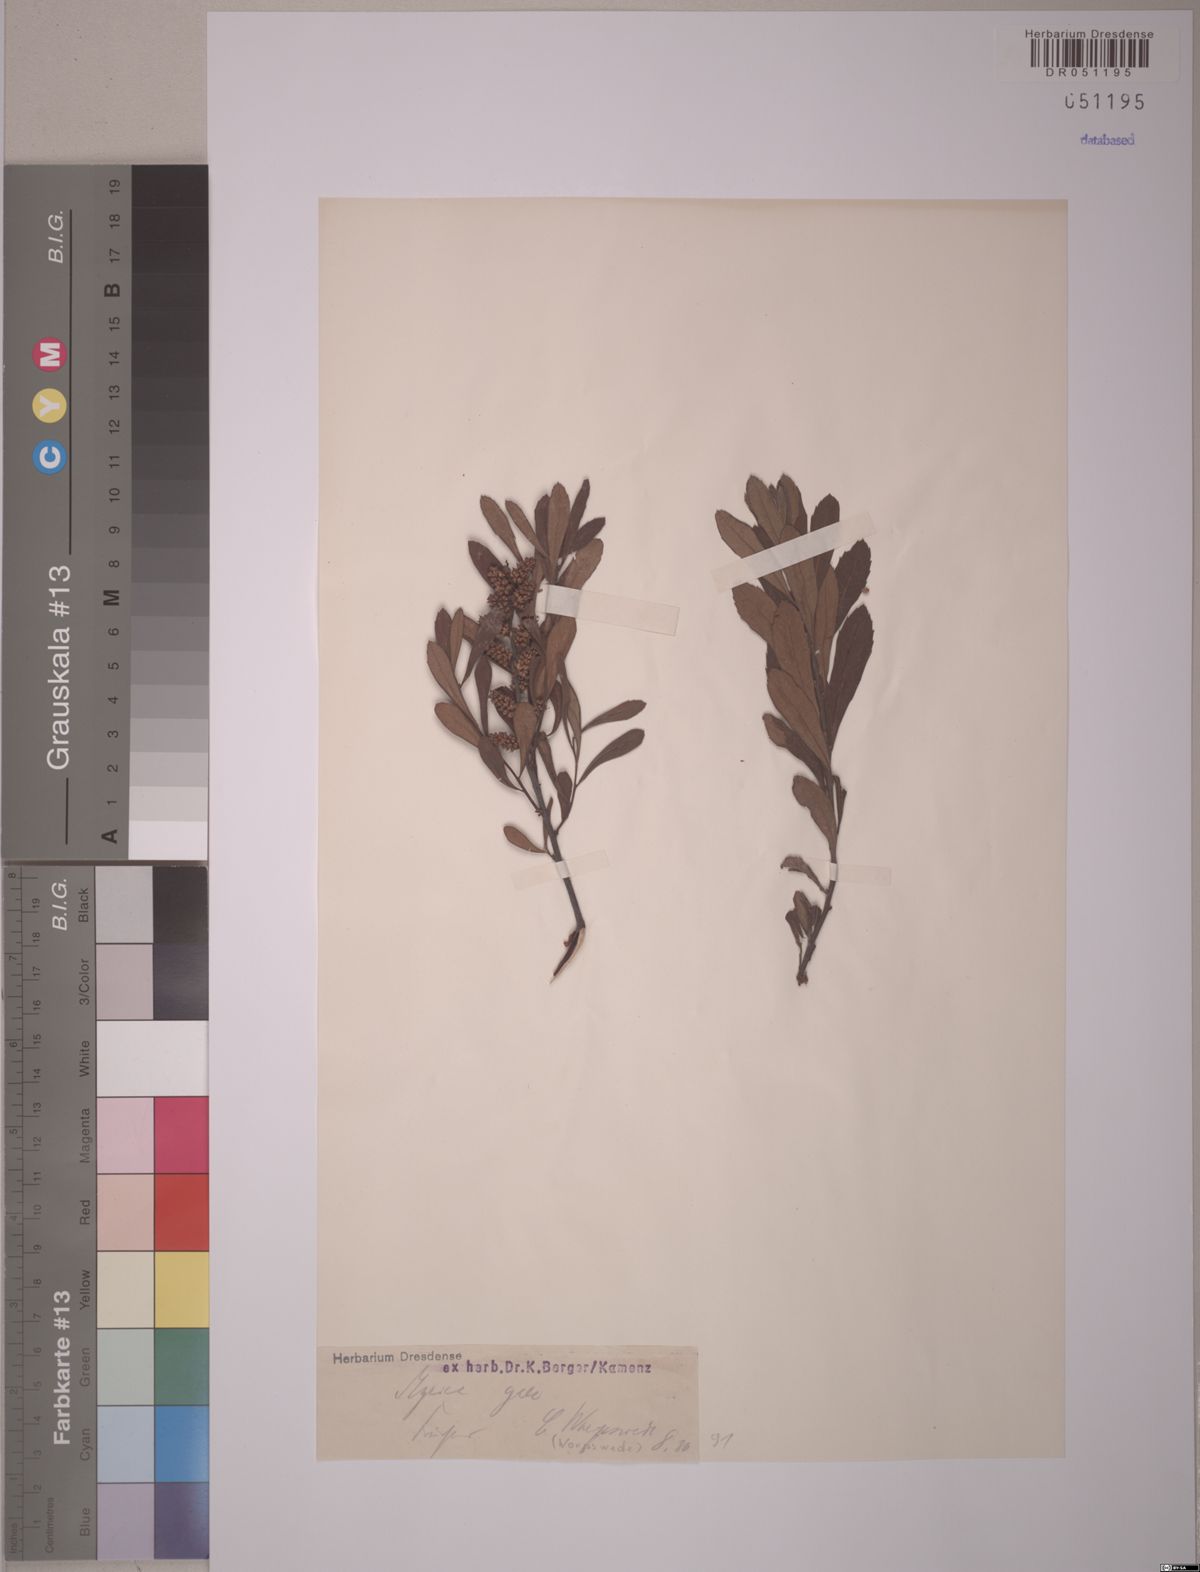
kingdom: Plantae
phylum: Tracheophyta
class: Magnoliopsida
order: Fagales
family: Myricaceae
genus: Myrica
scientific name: Myrica gale
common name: Sweet gale
